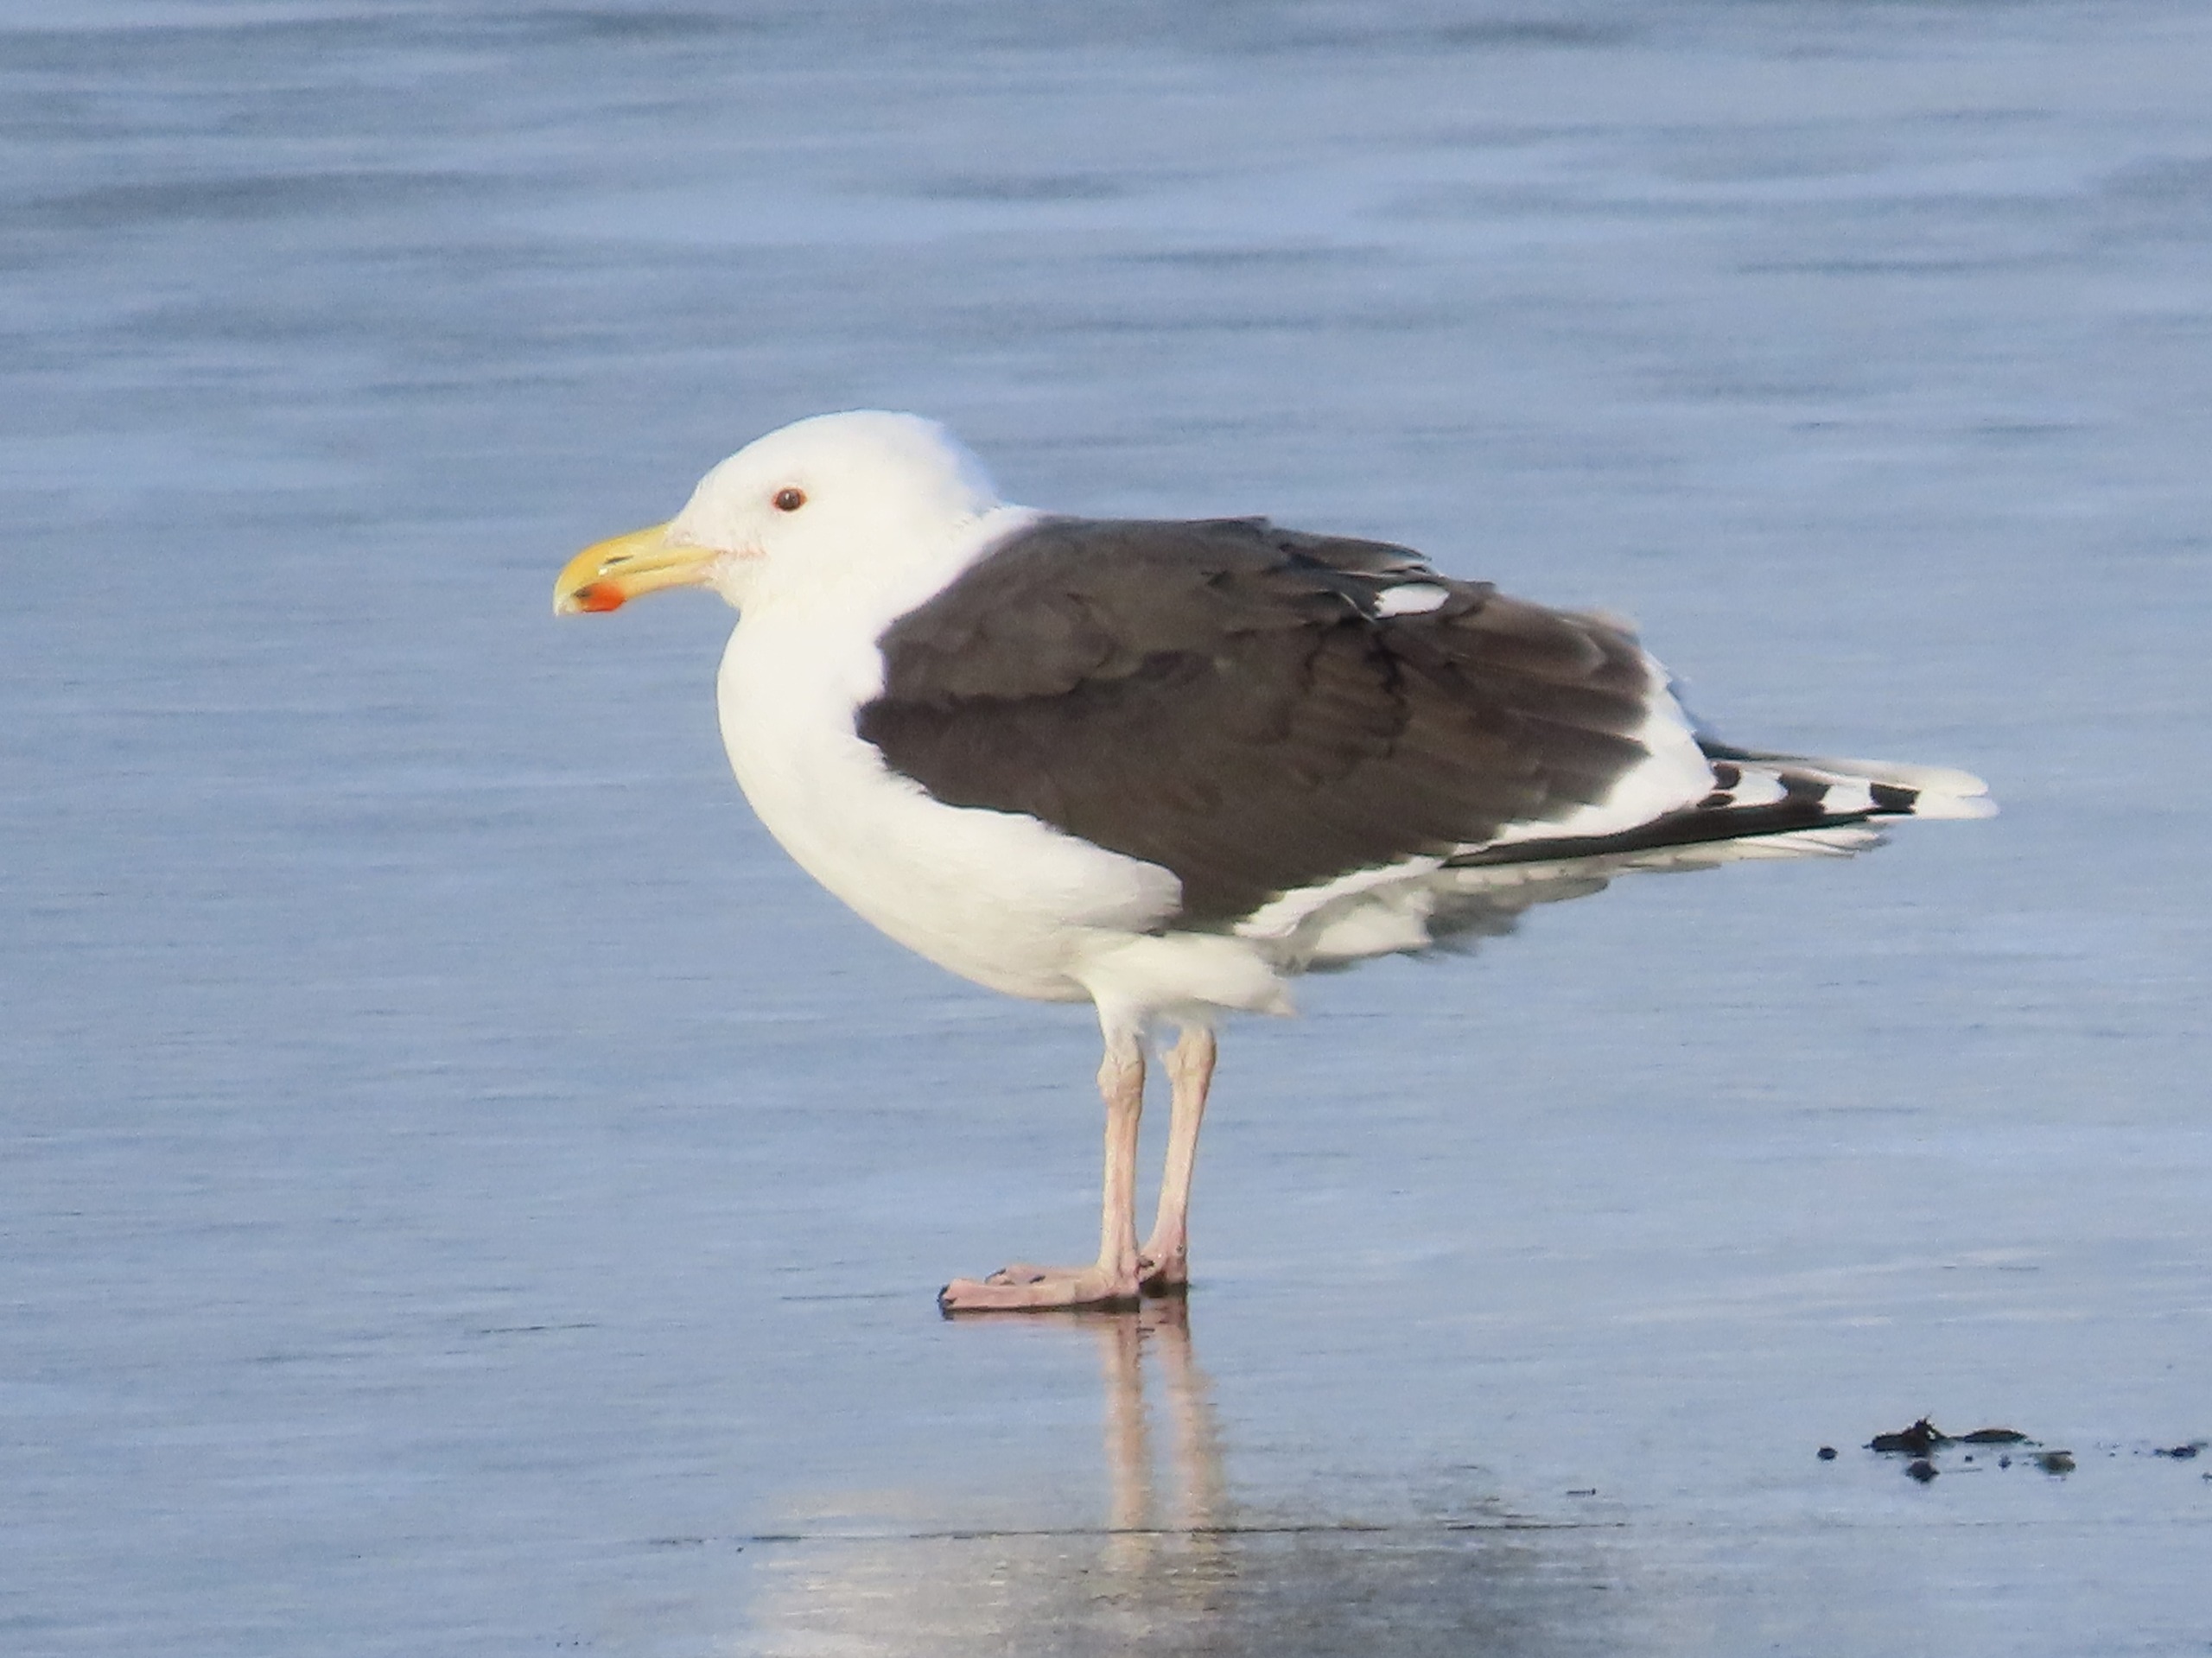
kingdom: Animalia
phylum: Chordata
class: Aves
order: Charadriiformes
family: Laridae
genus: Larus
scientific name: Larus marinus
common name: Svartbag
